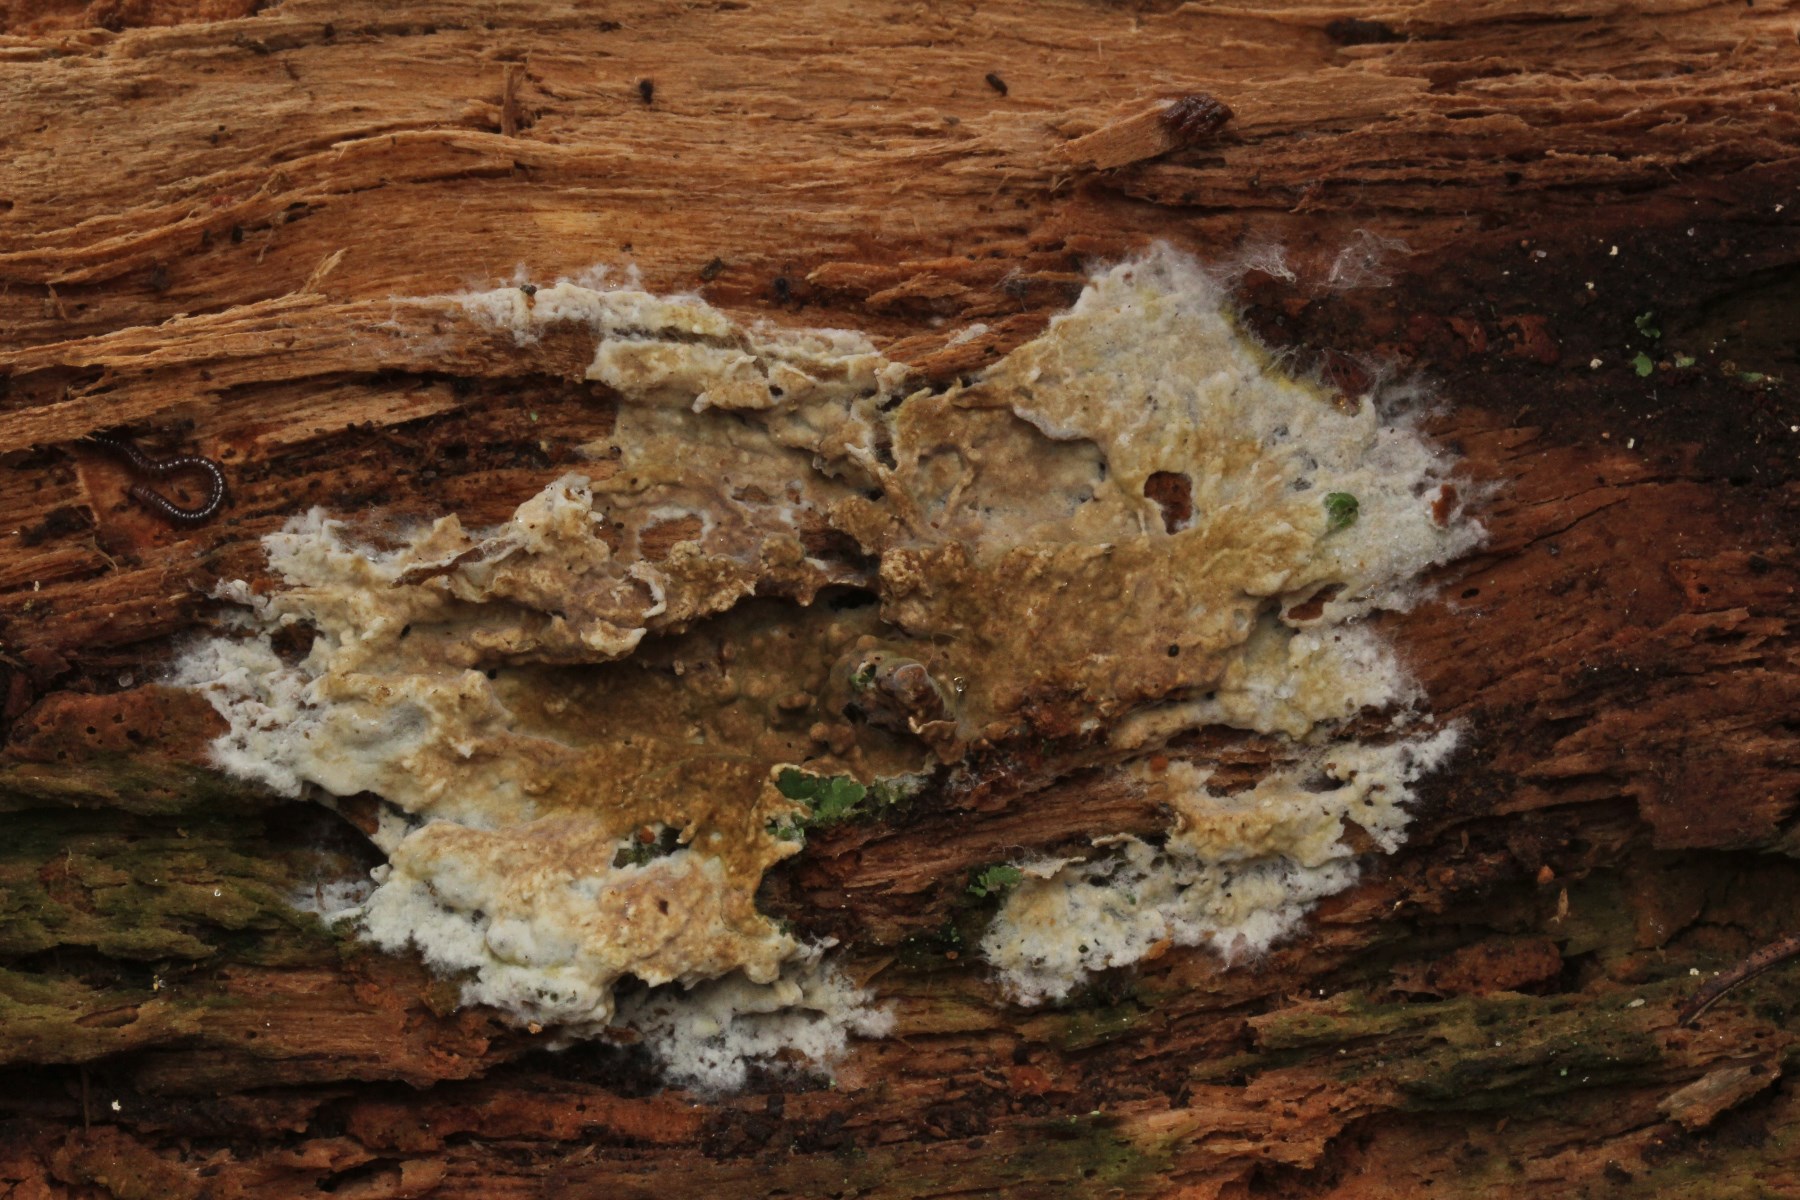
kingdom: Fungi
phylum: Basidiomycota
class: Agaricomycetes
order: Boletales
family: Coniophoraceae
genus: Coniophora
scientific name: Coniophora
